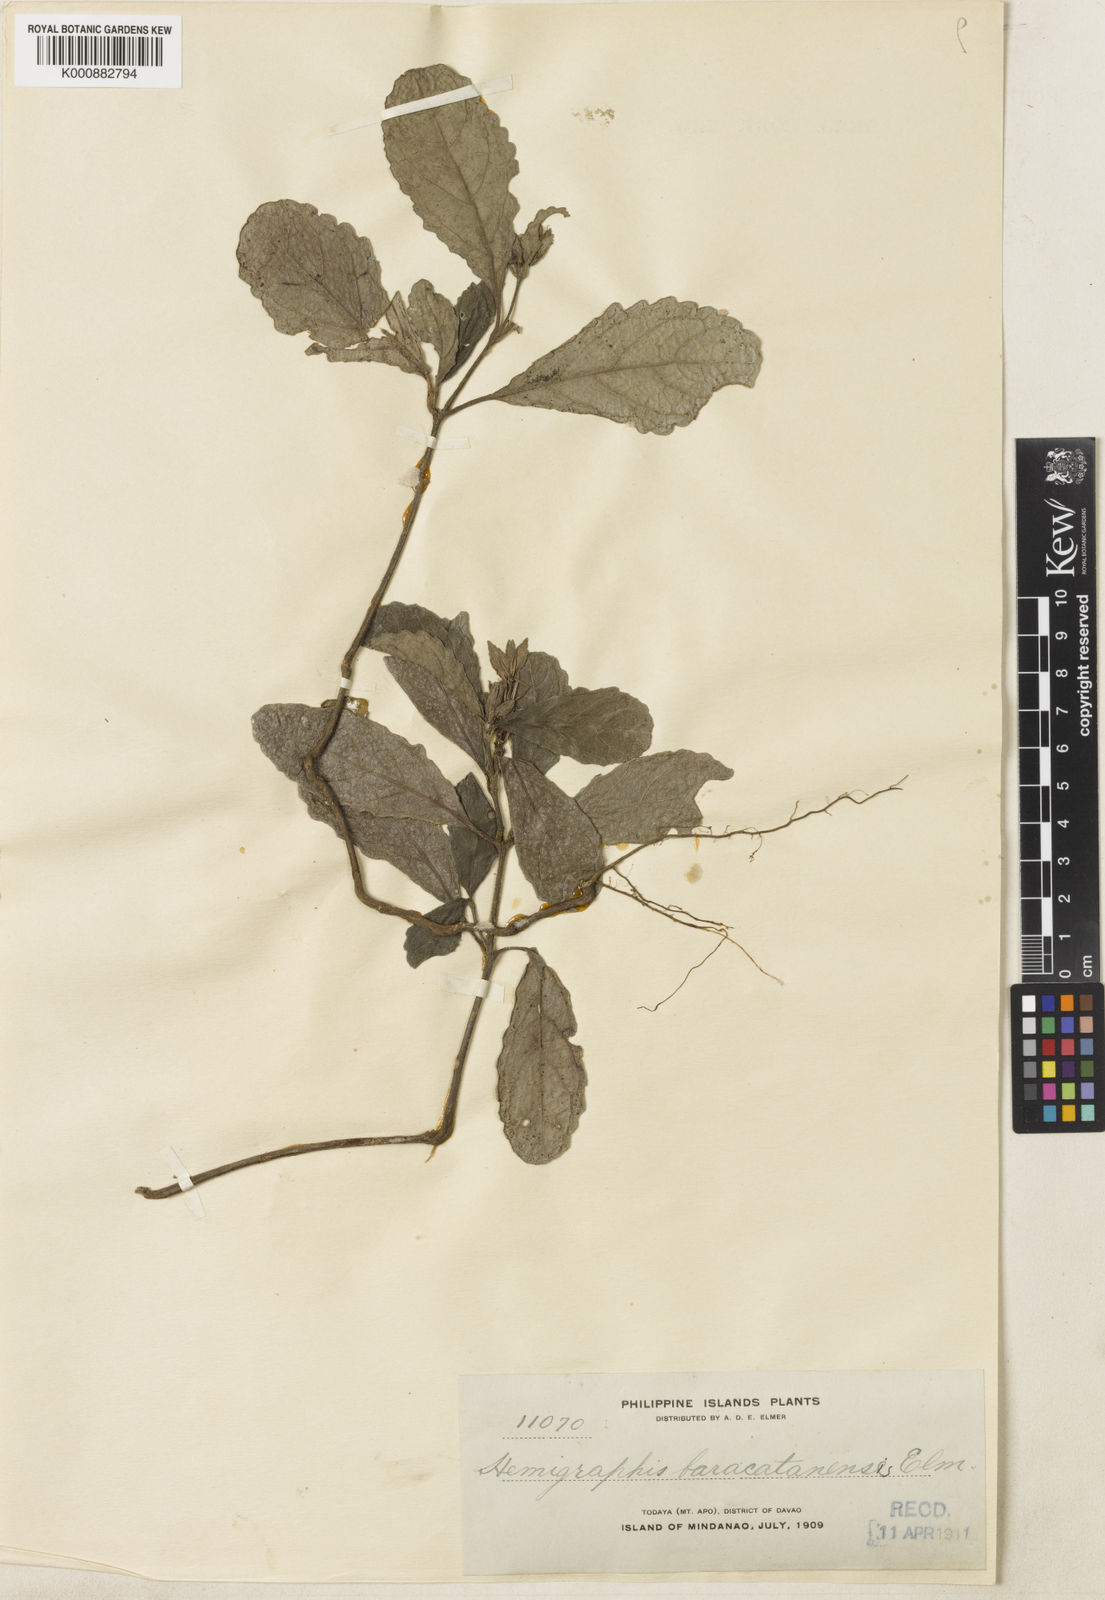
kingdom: Plantae
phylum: Tracheophyta
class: Magnoliopsida
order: Lamiales
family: Acanthaceae
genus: Strobilanthes
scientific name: Strobilanthes baracatanensis
